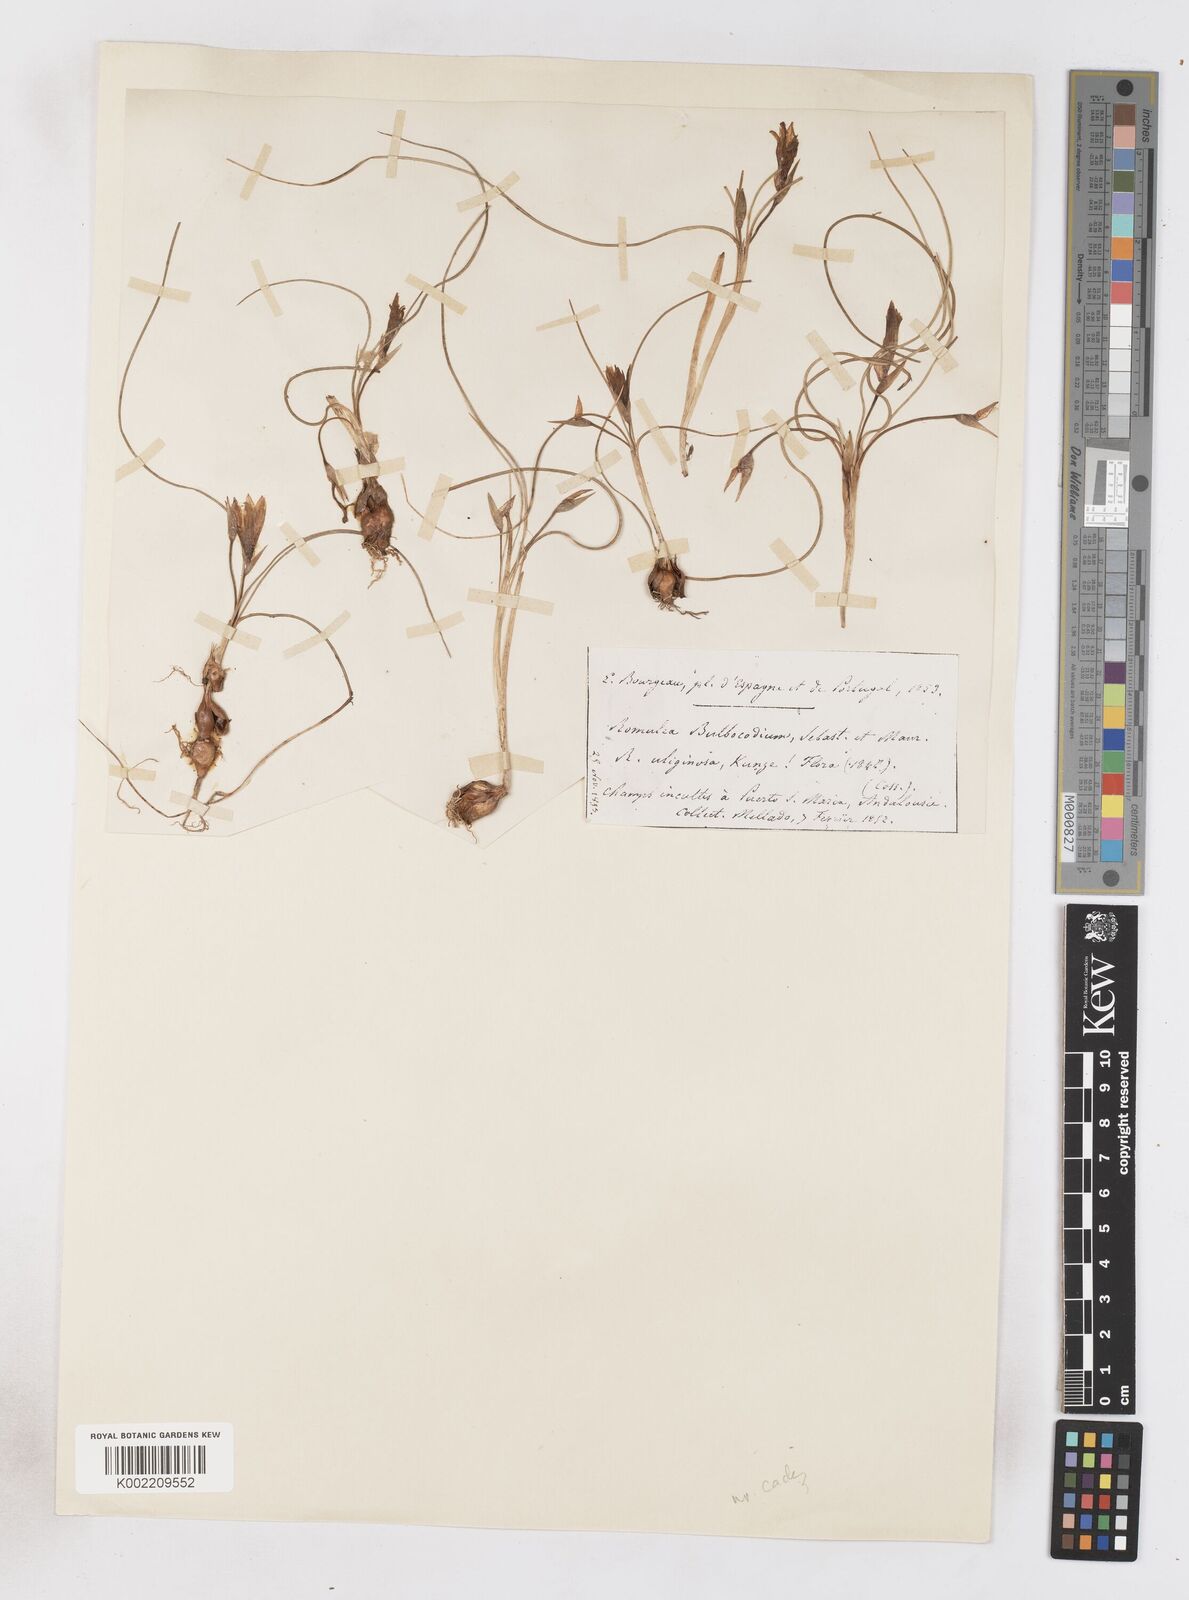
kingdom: Plantae
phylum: Tracheophyta
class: Liliopsida
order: Asparagales
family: Iridaceae
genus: Romulea
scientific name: Romulea bulbocodium
